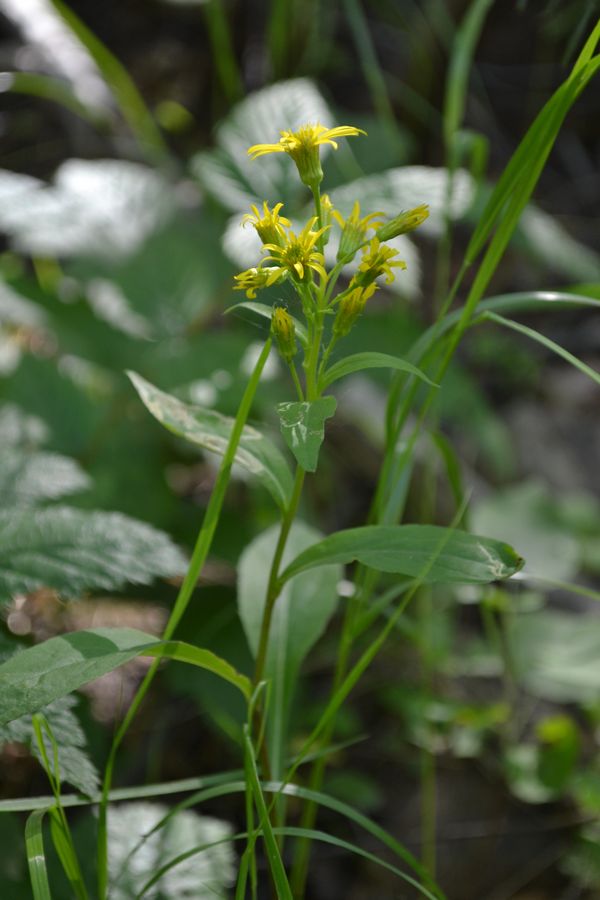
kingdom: Plantae
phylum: Tracheophyta
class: Magnoliopsida
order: Asterales
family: Asteraceae
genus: Solidago
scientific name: Solidago virgaurea
